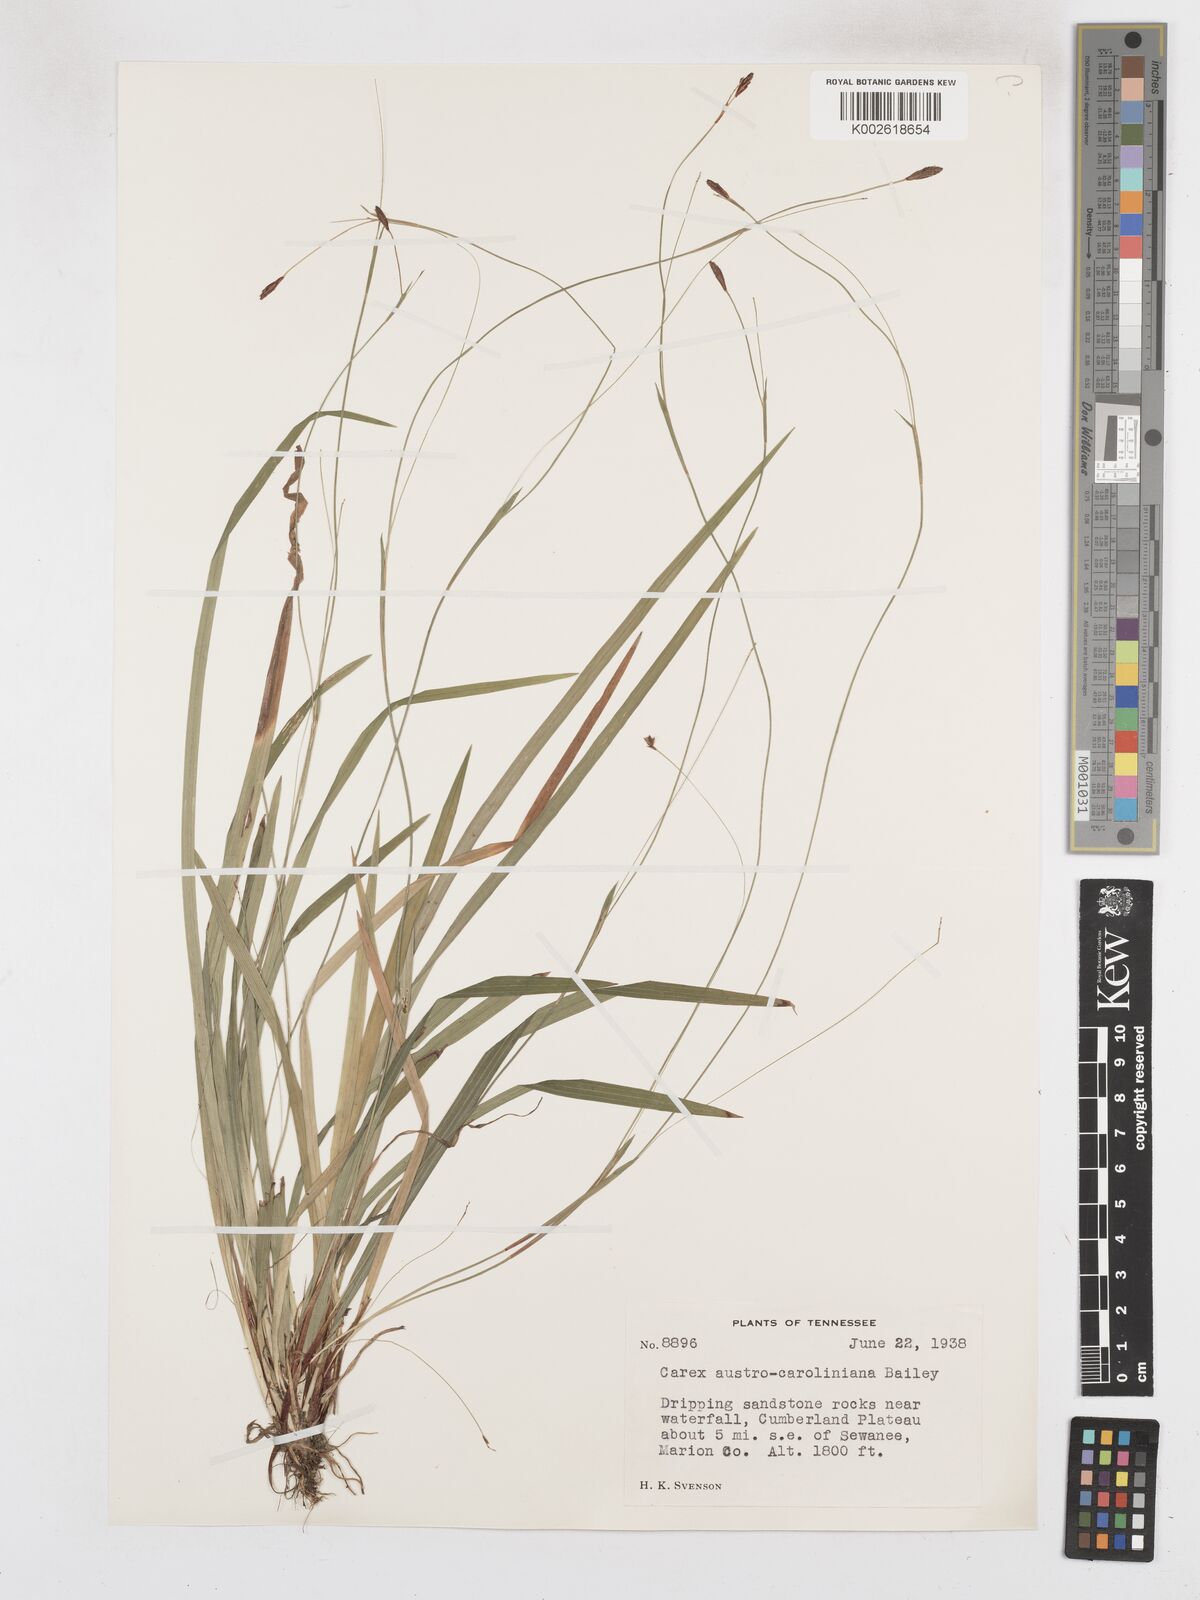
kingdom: Plantae
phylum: Tracheophyta
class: Liliopsida
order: Poales
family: Cyperaceae
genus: Carex
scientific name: Carex austrocaroliniana
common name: Tarheel sedge
